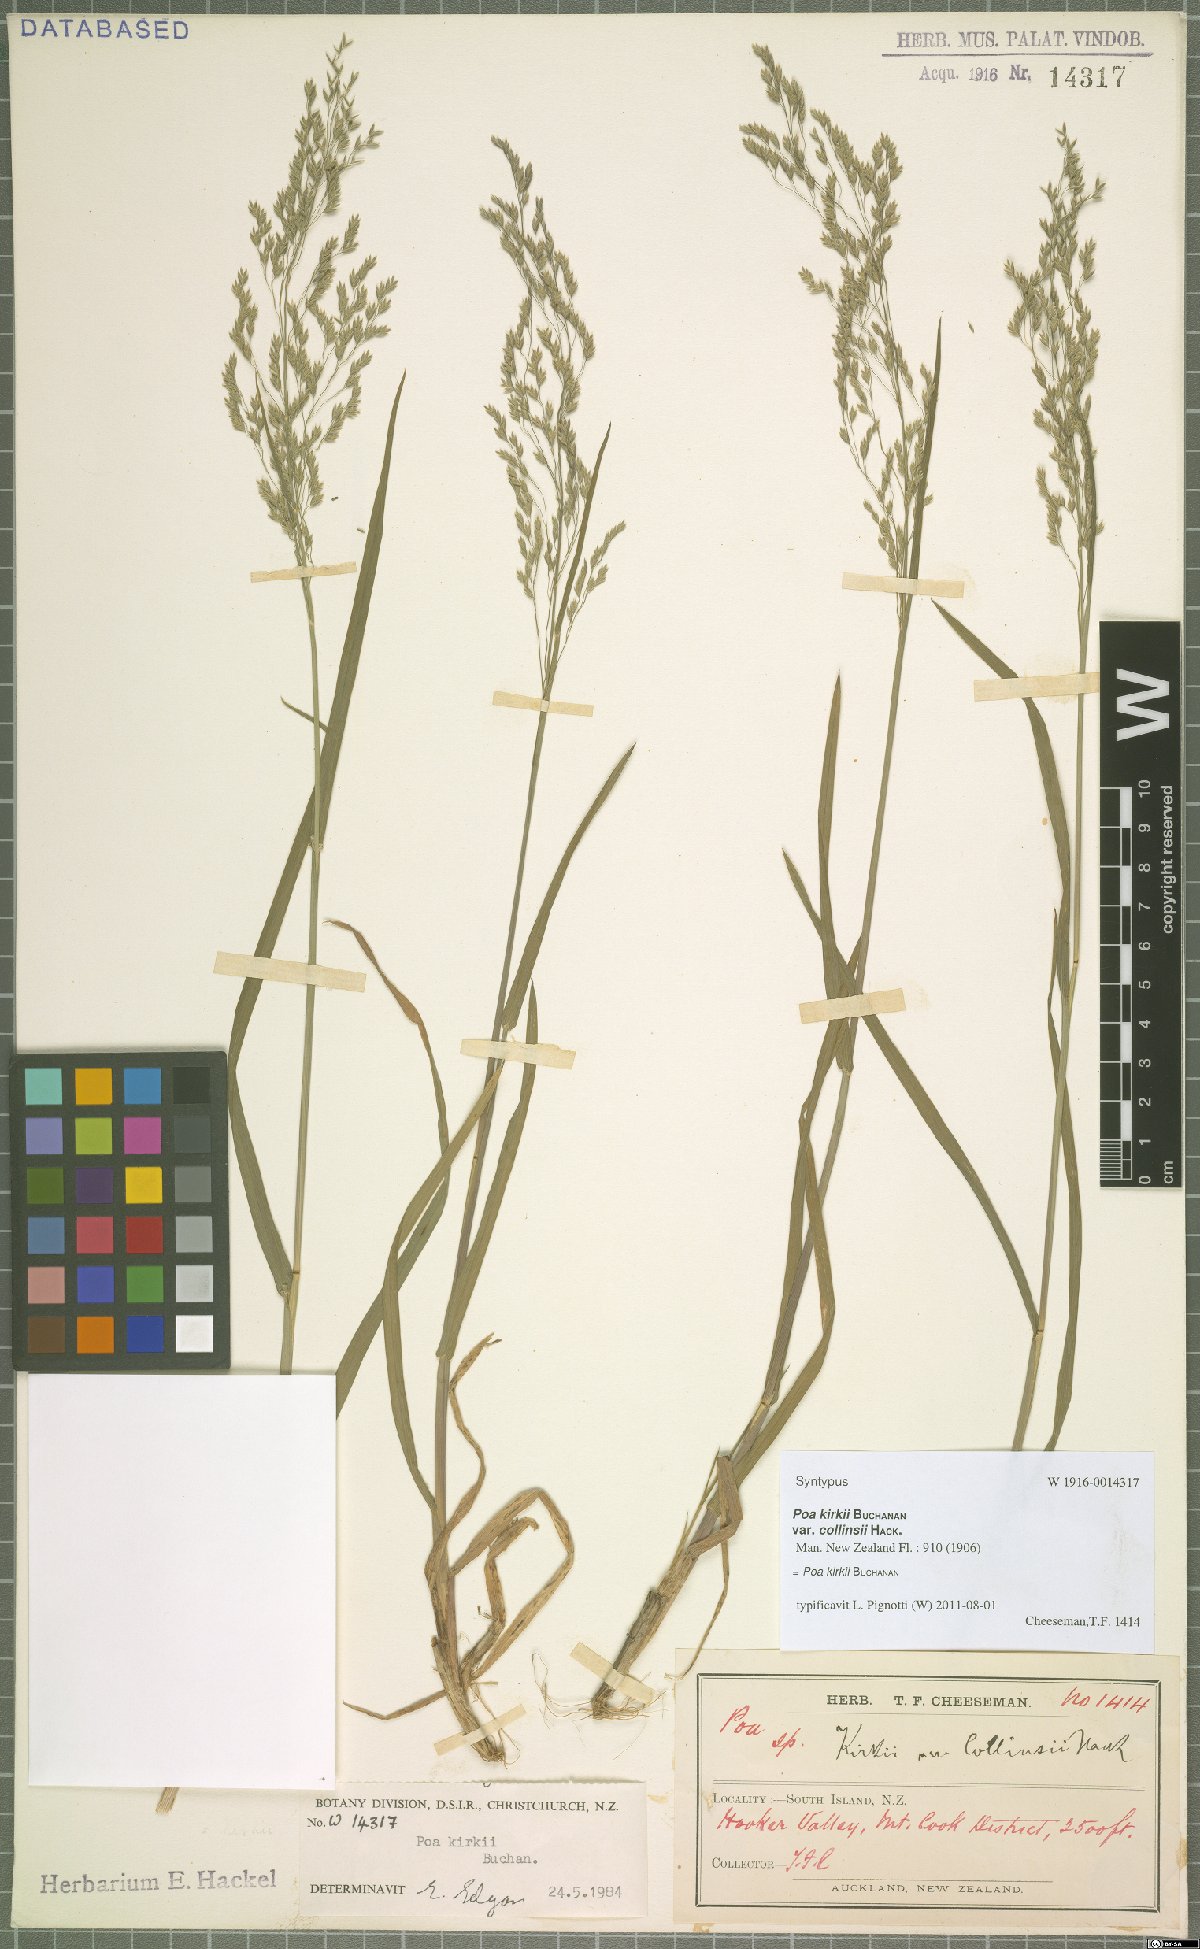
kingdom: Plantae
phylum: Tracheophyta
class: Liliopsida
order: Poales
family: Poaceae
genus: Poa
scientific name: Poa kirkii
